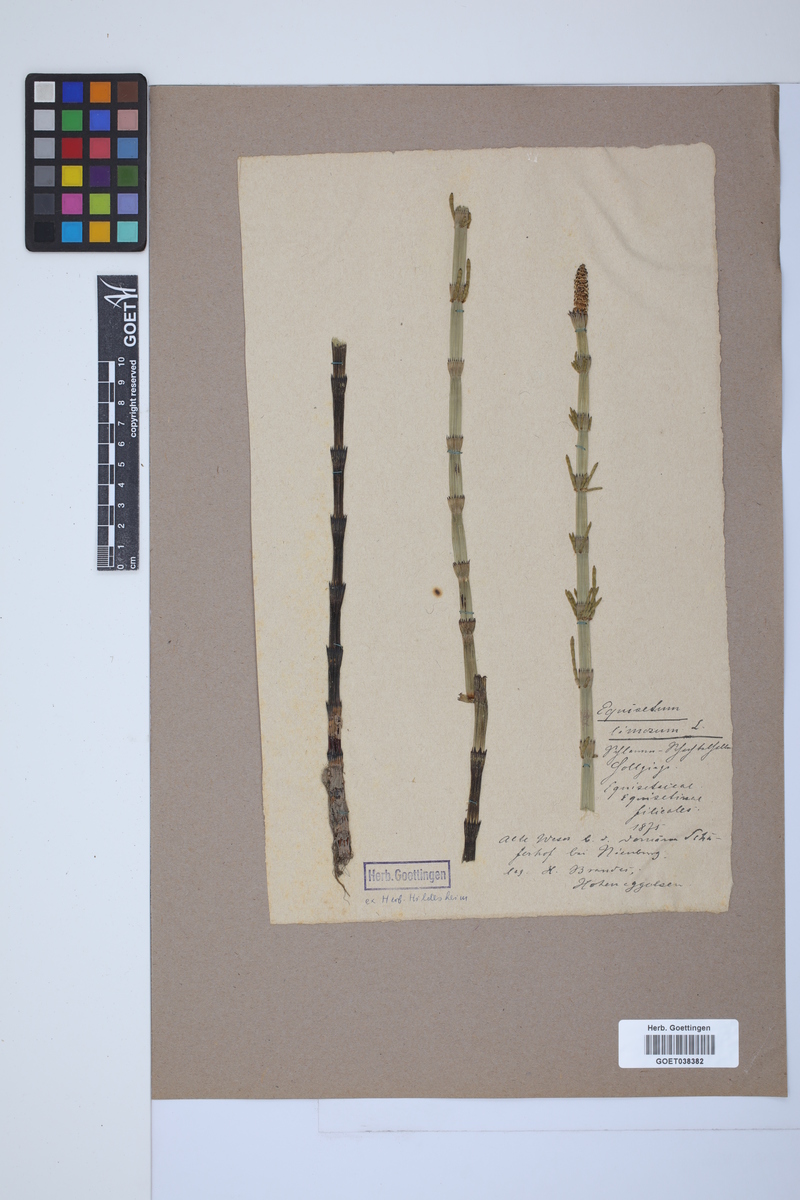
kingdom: Plantae
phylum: Tracheophyta
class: Polypodiopsida
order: Equisetales
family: Equisetaceae
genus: Equisetum
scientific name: Equisetum fluviatile
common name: Water horsetail
